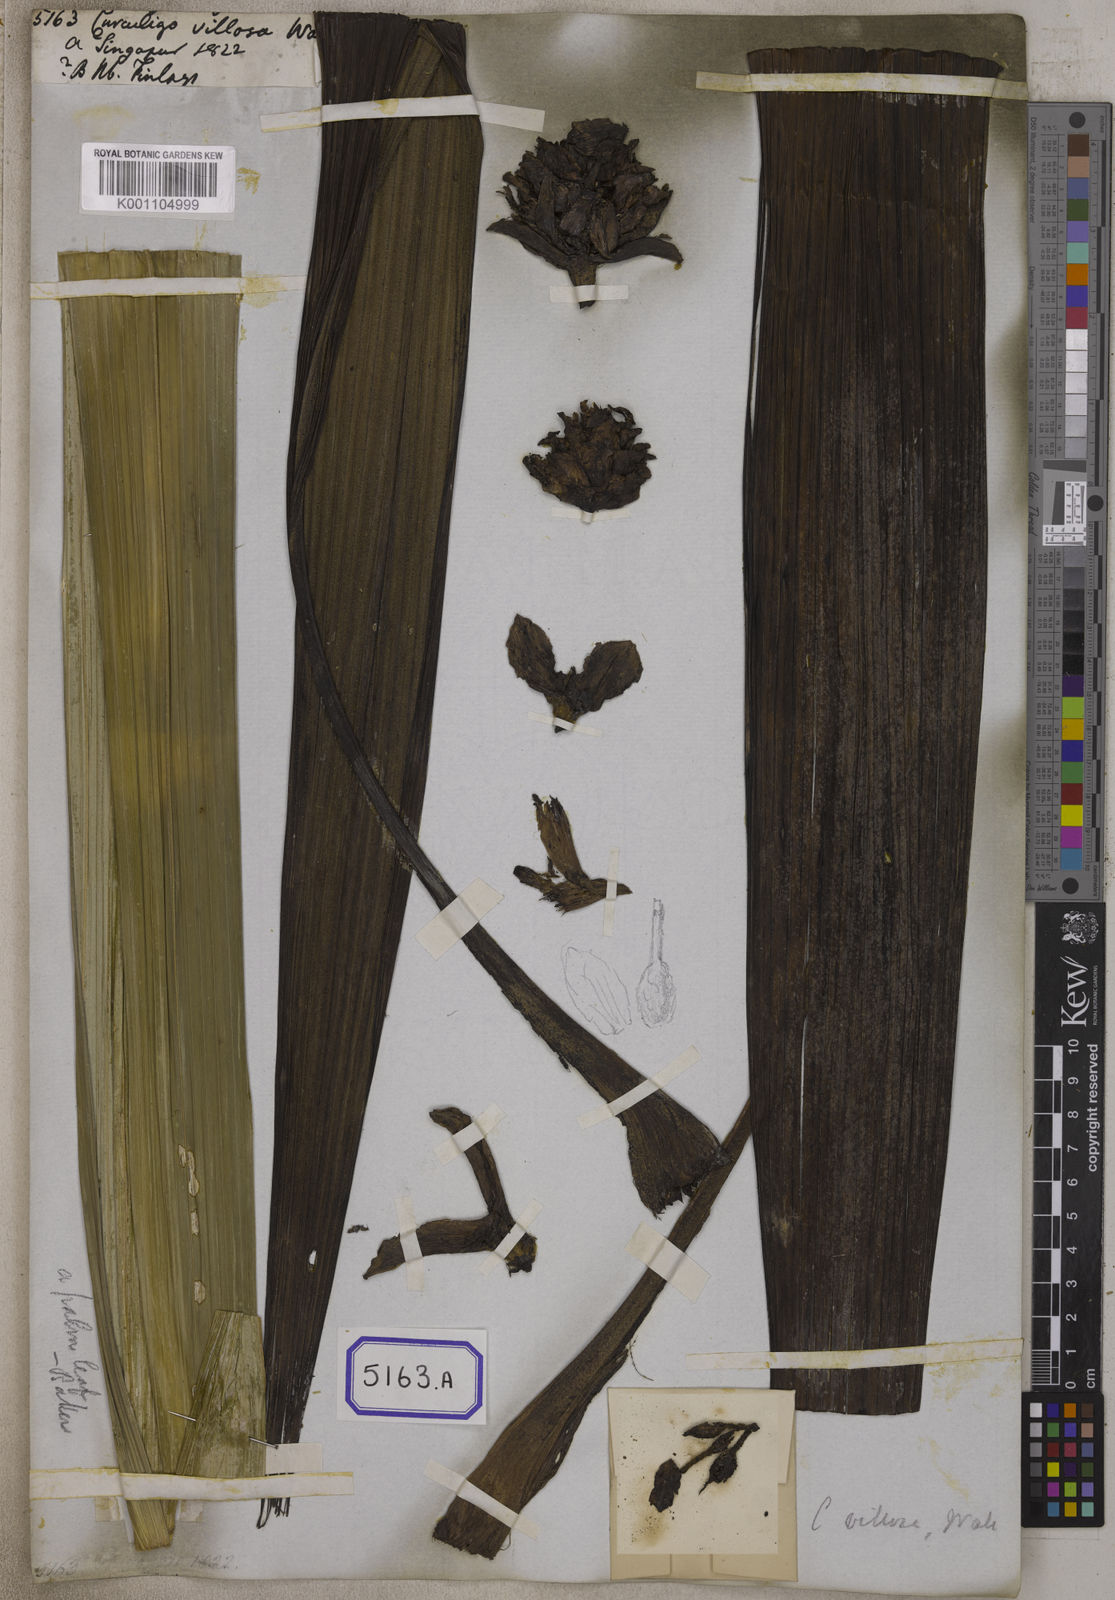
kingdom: Plantae
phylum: Tracheophyta
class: Liliopsida
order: Asparagales
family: Hypoxidaceae
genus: Curculigo
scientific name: Curculigo
